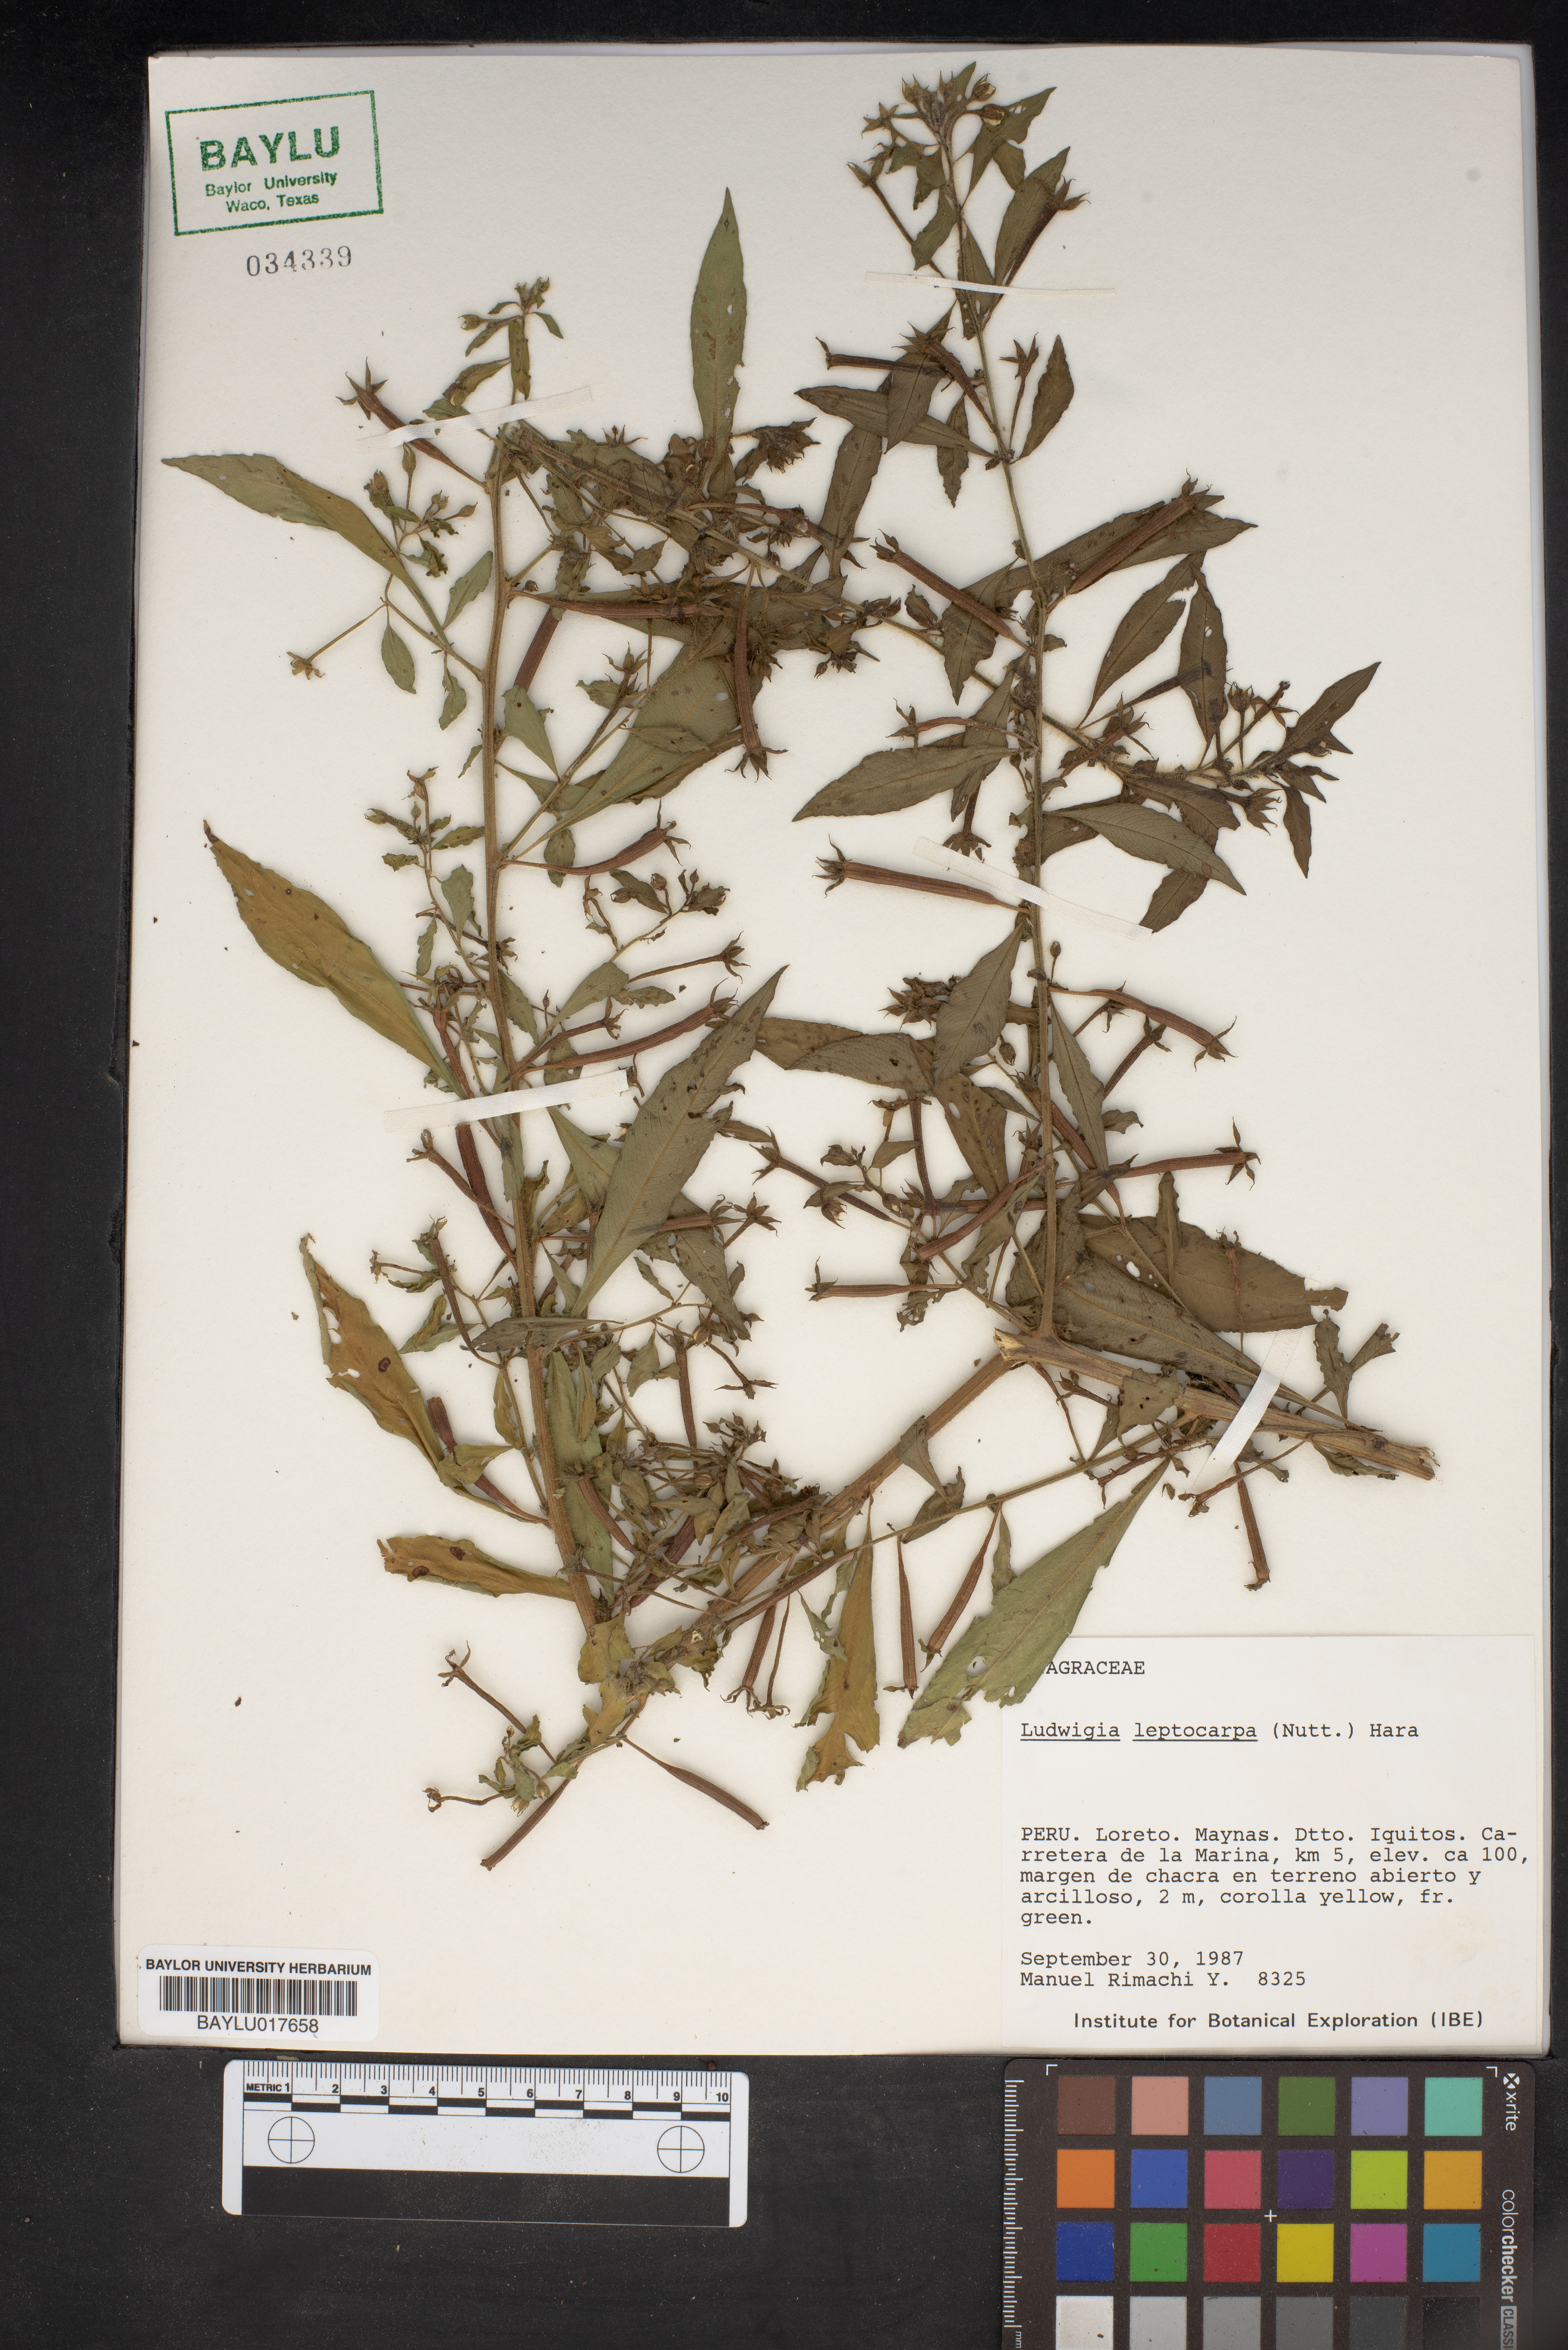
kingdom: Plantae
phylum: Tracheophyta
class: Magnoliopsida
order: Myrtales
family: Onagraceae
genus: Ludwigia
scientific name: Ludwigia leptocarpa
